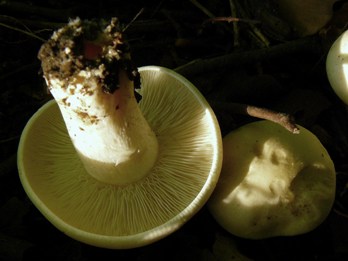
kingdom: Fungi
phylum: Basidiomycota
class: Agaricomycetes
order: Agaricales
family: Lyophyllaceae
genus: Calocybe
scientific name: Calocybe gambosa
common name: vårmusseron
